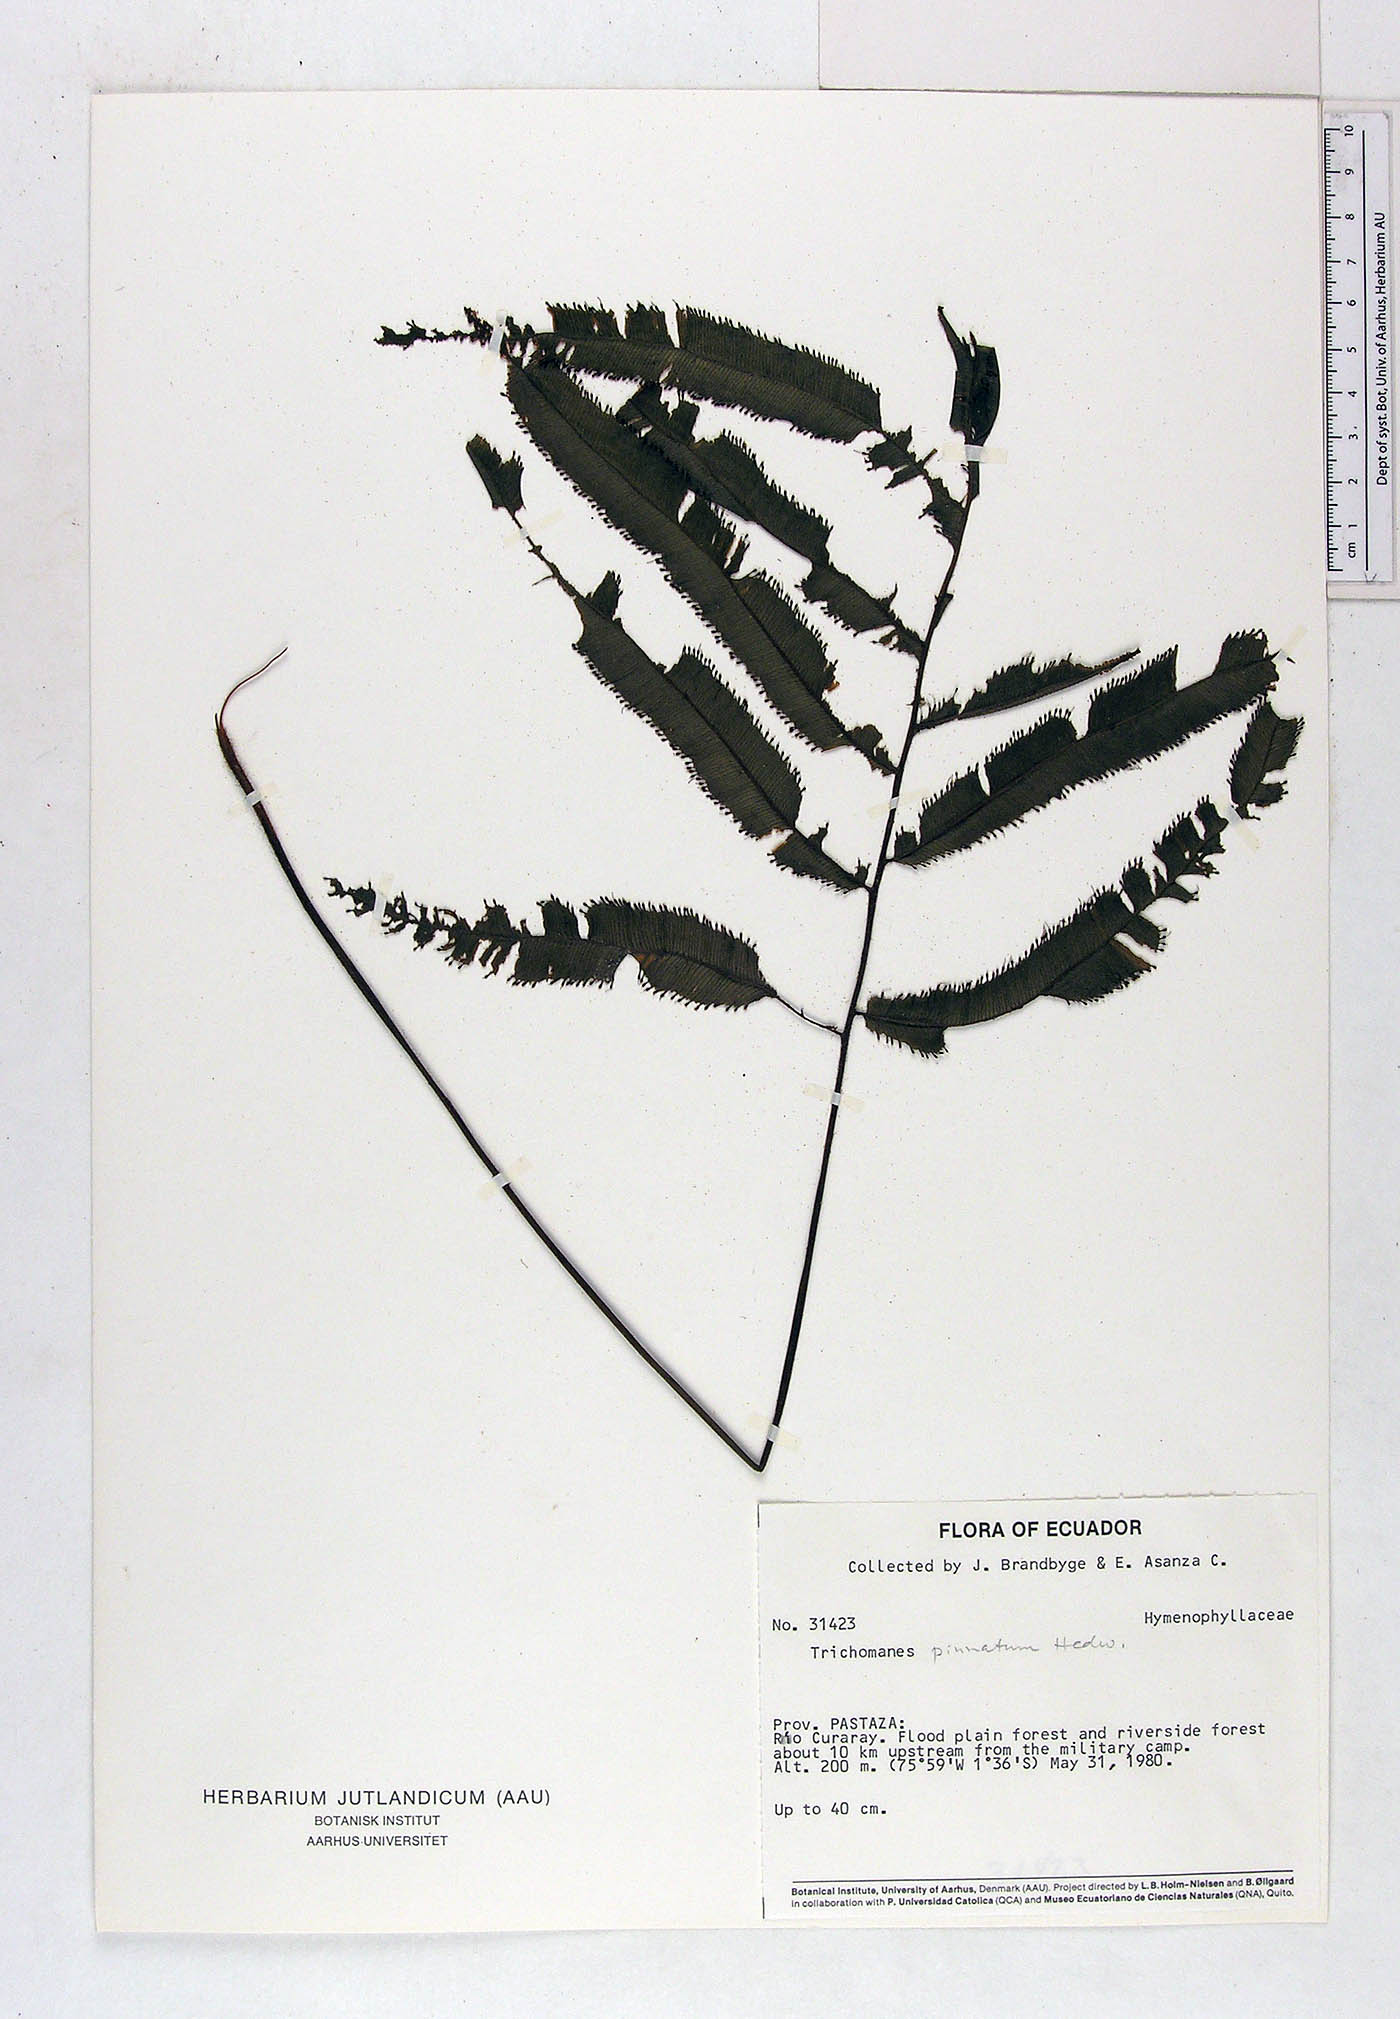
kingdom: Plantae
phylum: Tracheophyta
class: Polypodiopsida
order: Hymenophyllales
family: Hymenophyllaceae
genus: Trichomanes
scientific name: Trichomanes pinnatum
